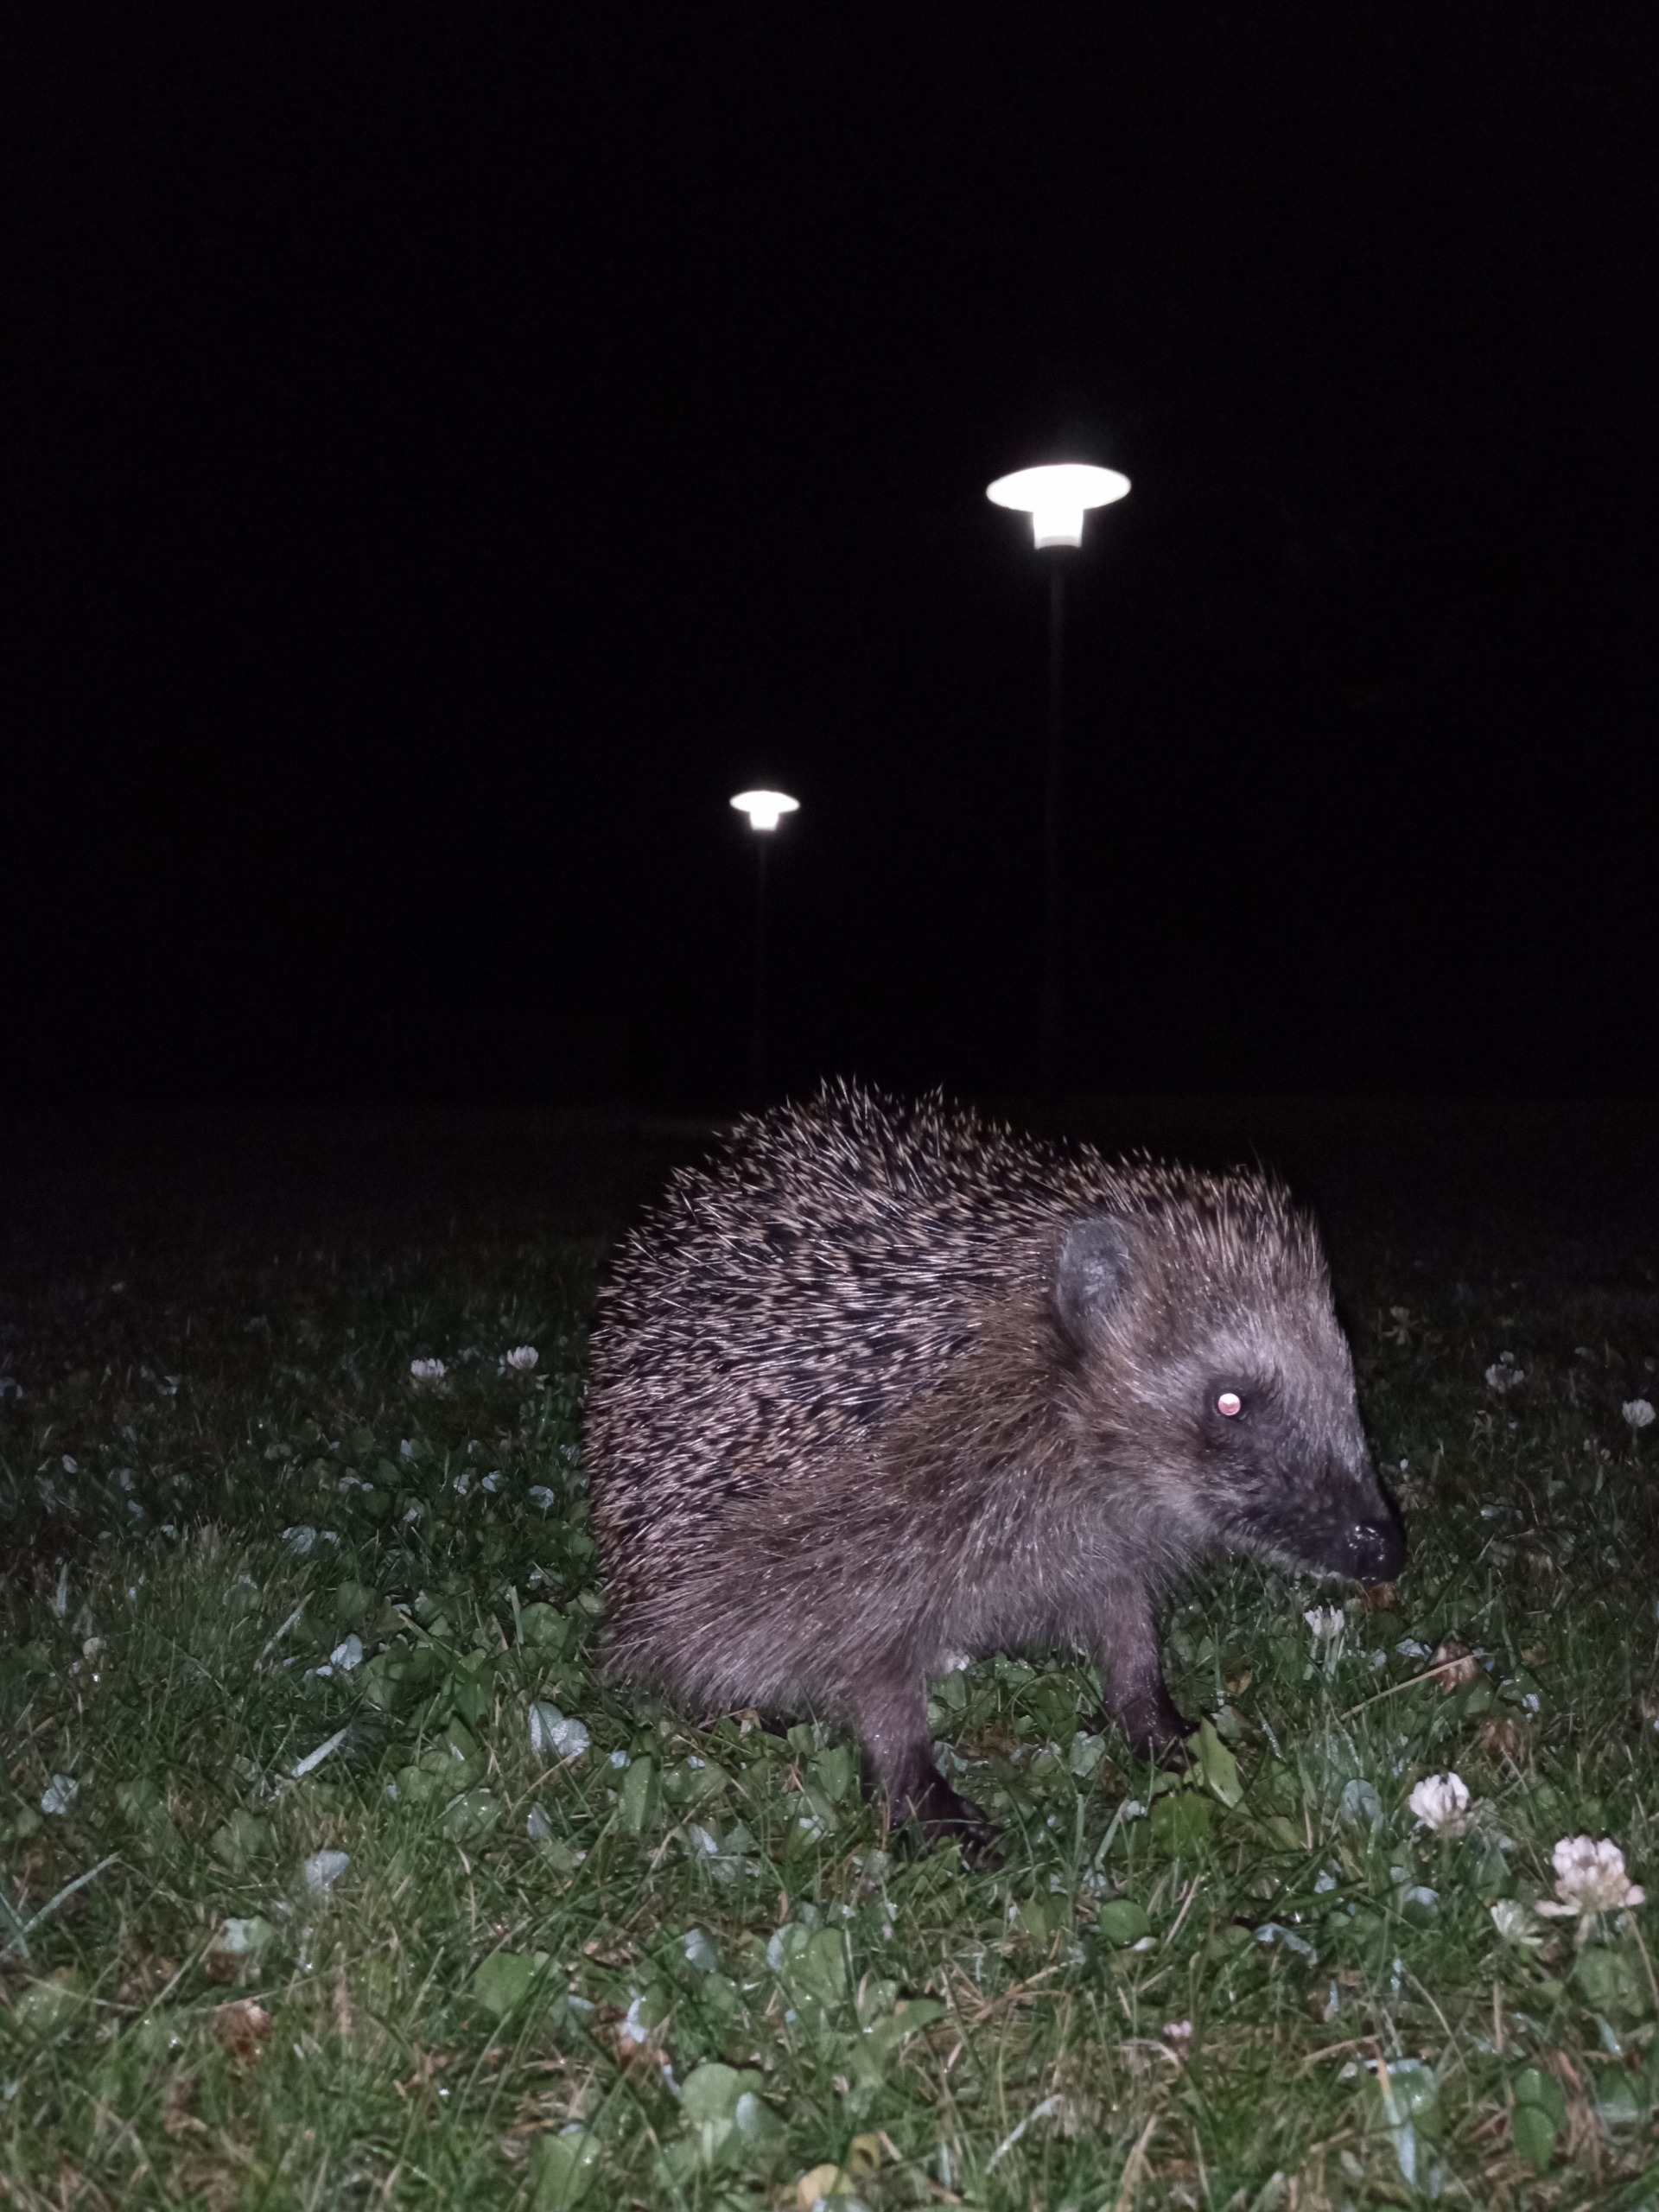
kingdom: Animalia
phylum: Chordata
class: Mammalia
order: Erinaceomorpha
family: Erinaceidae
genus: Erinaceus
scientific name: Erinaceus europaeus
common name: Pindsvin
